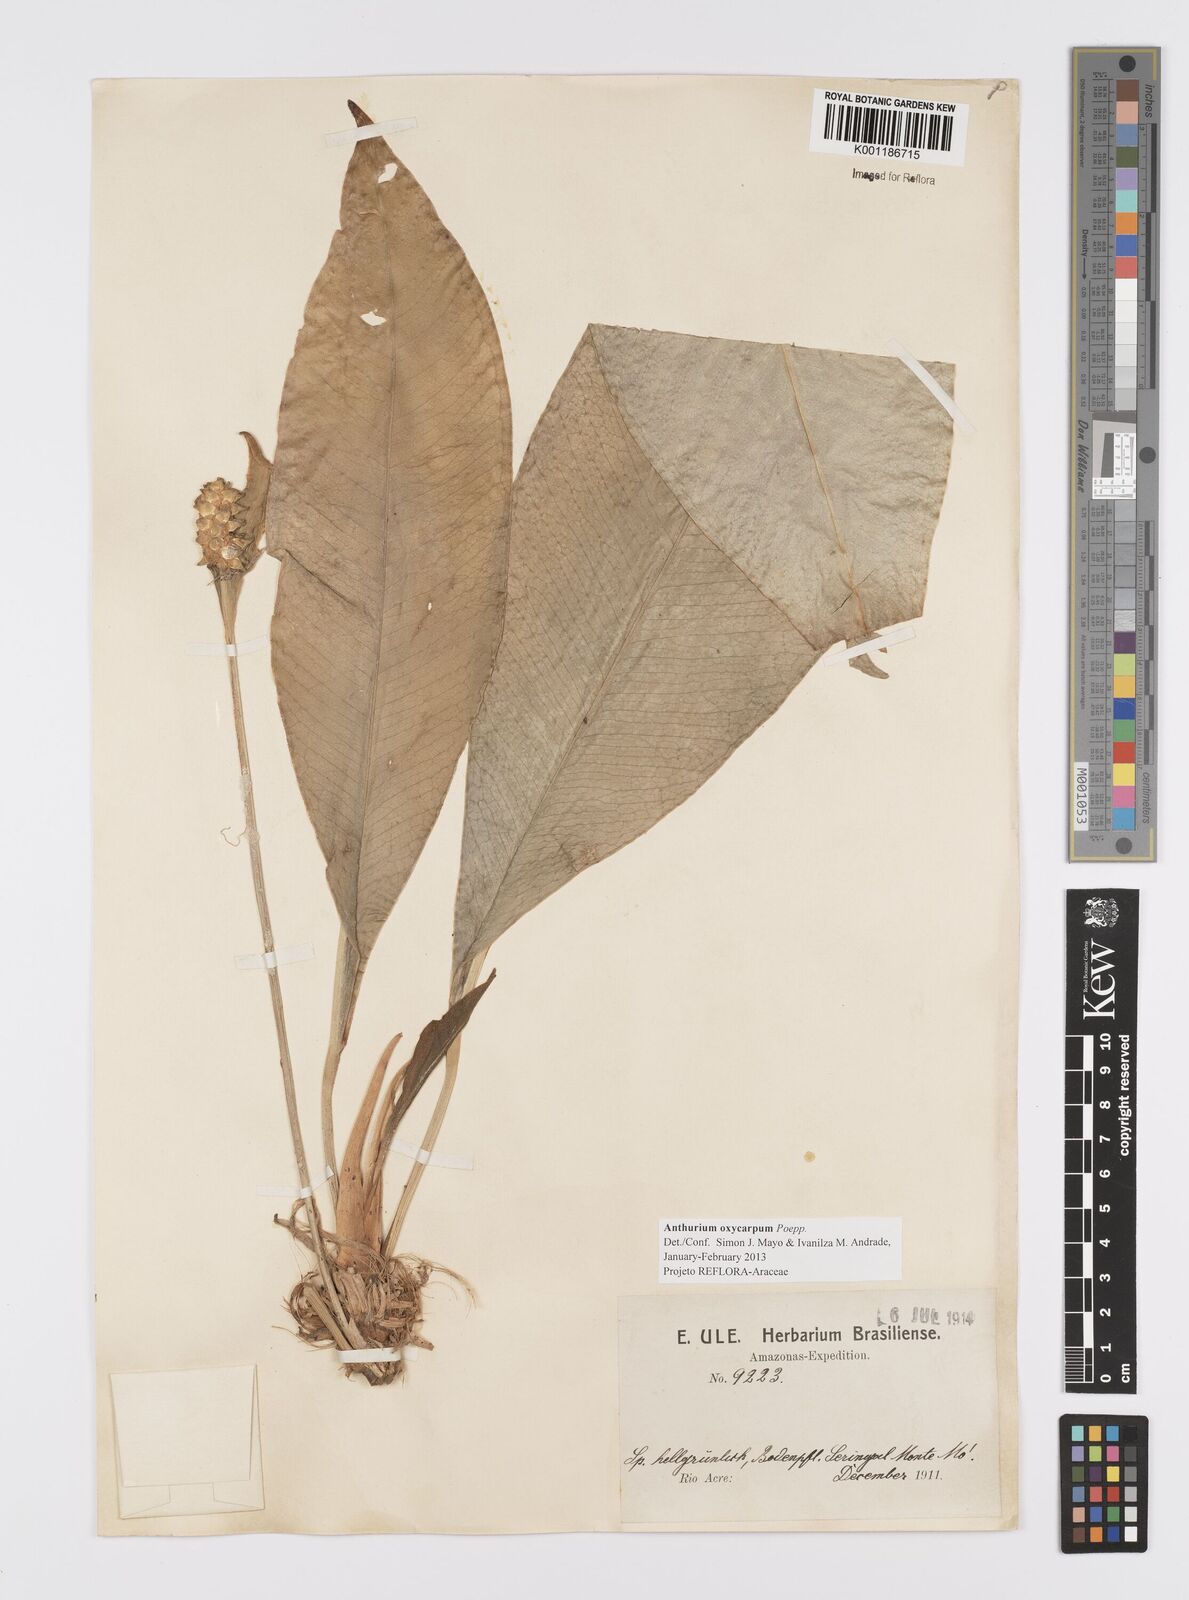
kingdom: Plantae
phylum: Tracheophyta
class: Liliopsida
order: Alismatales
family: Araceae
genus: Anthurium
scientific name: Anthurium oxycarpum
